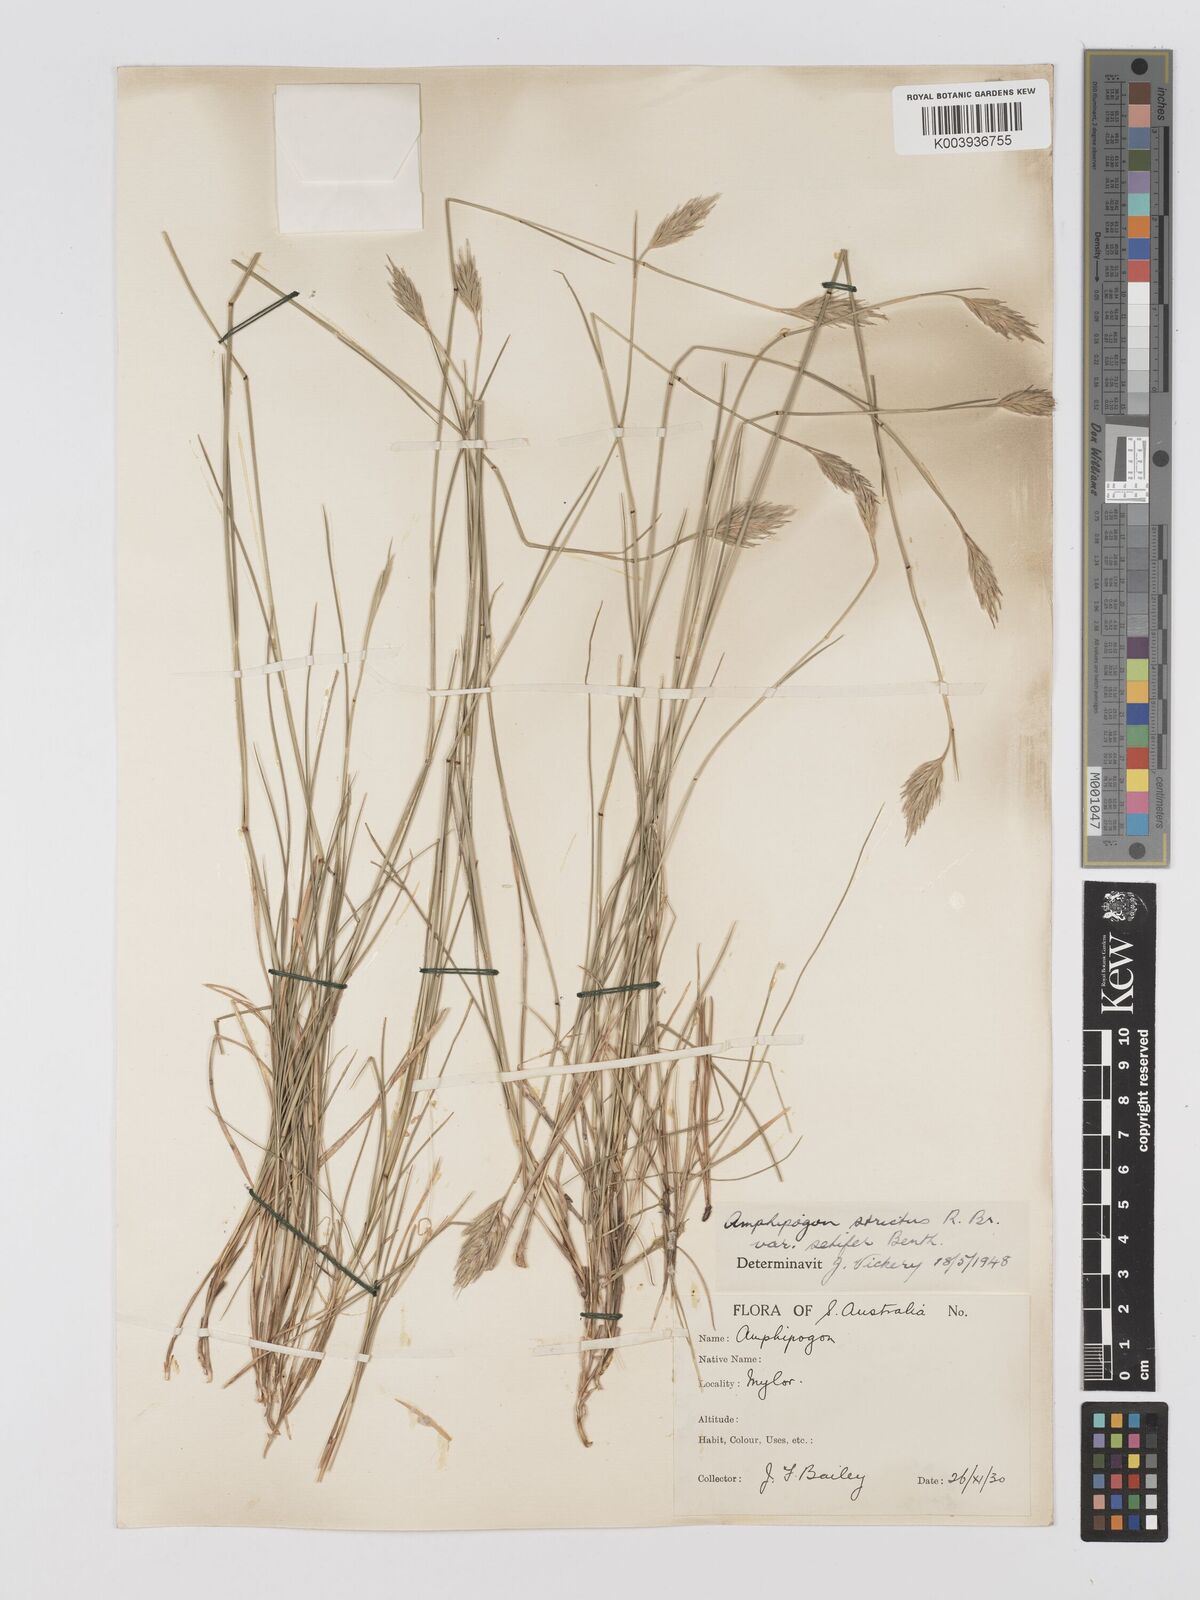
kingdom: Plantae
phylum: Tracheophyta
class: Liliopsida
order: Poales
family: Poaceae
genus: Amphipogon
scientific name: Amphipogon strictus
